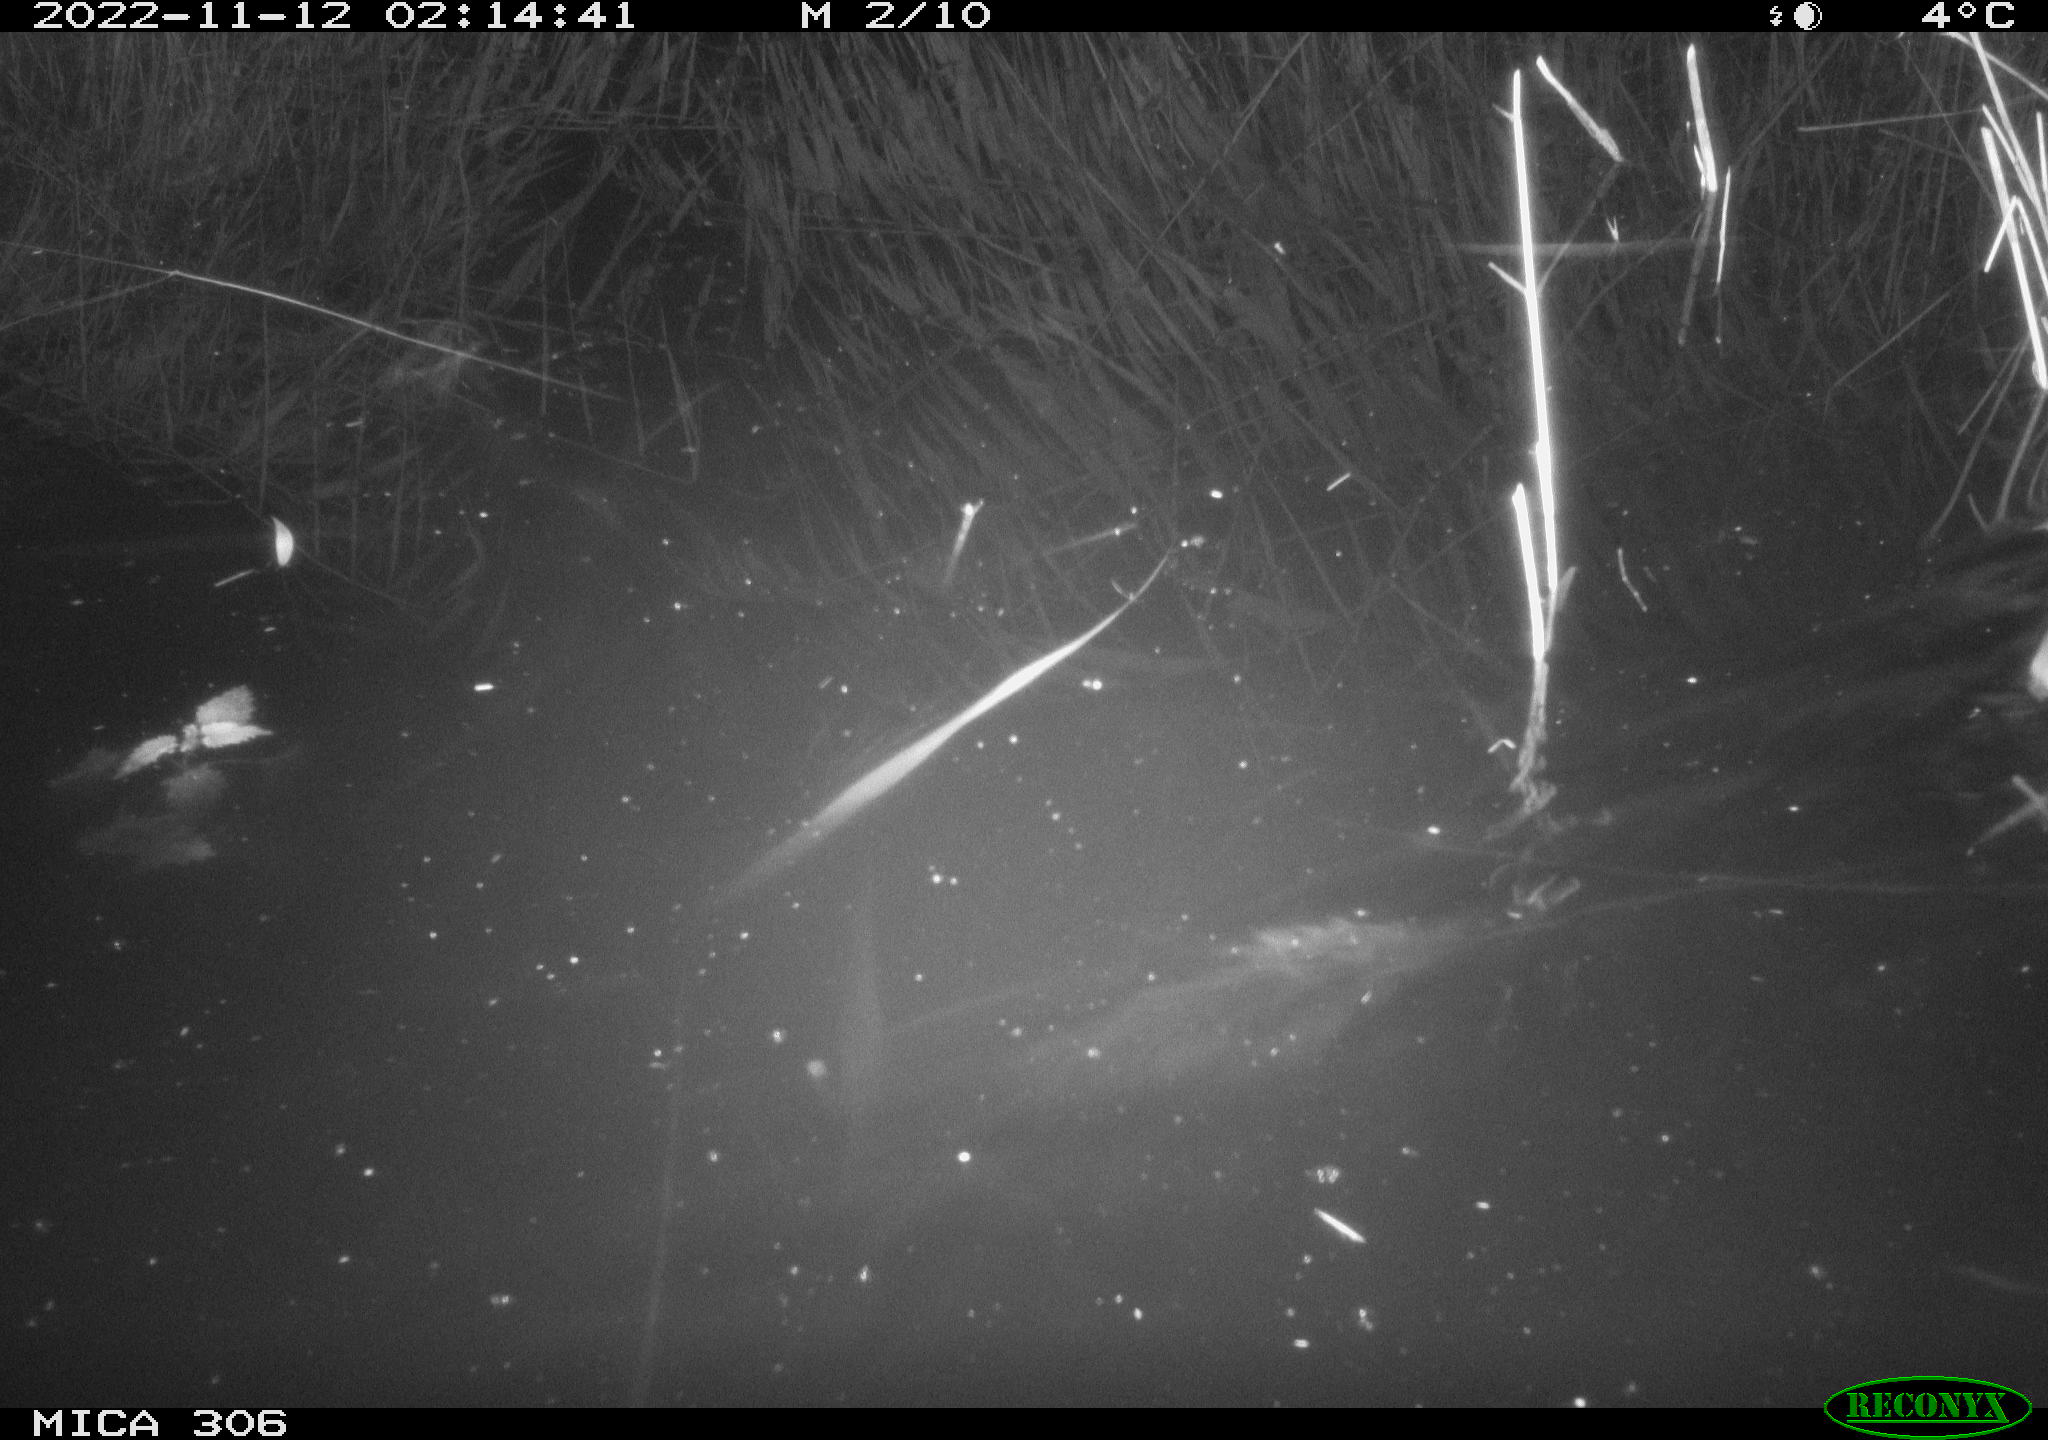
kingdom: Animalia
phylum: Chordata
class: Mammalia
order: Rodentia
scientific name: Rodentia
